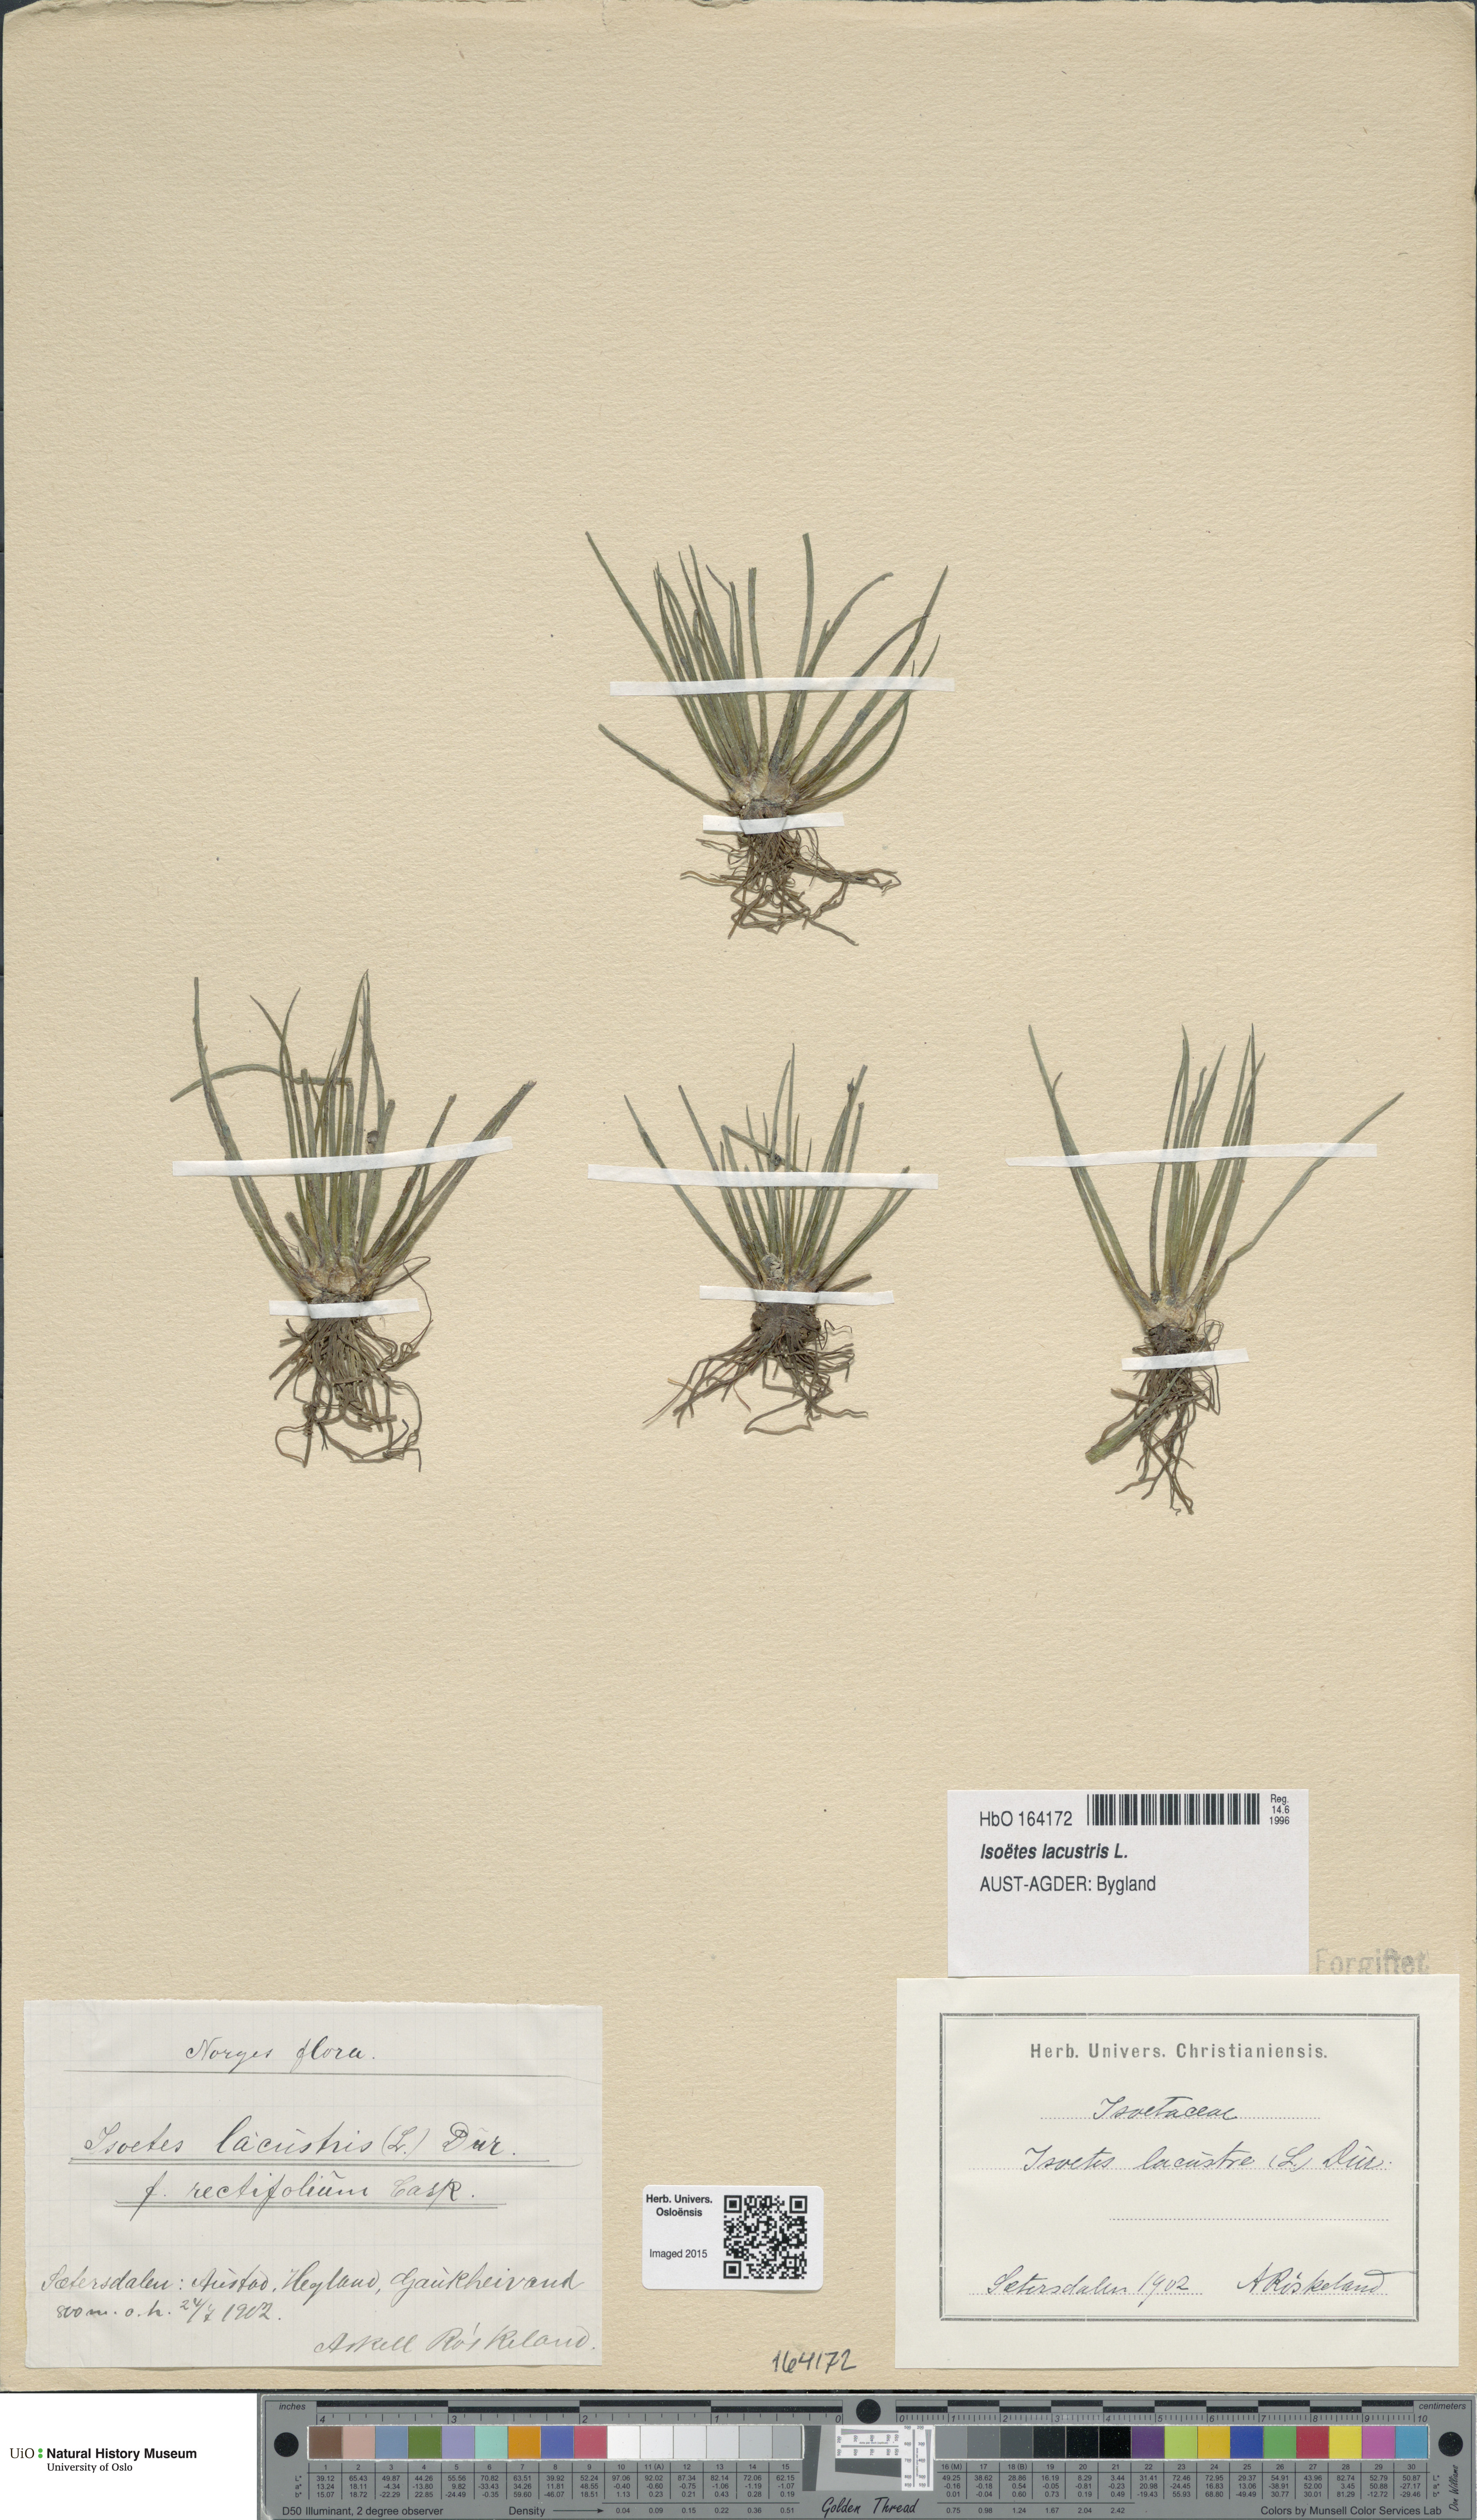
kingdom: Plantae
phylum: Tracheophyta
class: Lycopodiopsida
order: Isoetales
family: Isoetaceae
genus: Isoetes
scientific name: Isoetes lacustris
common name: Common quillwort
